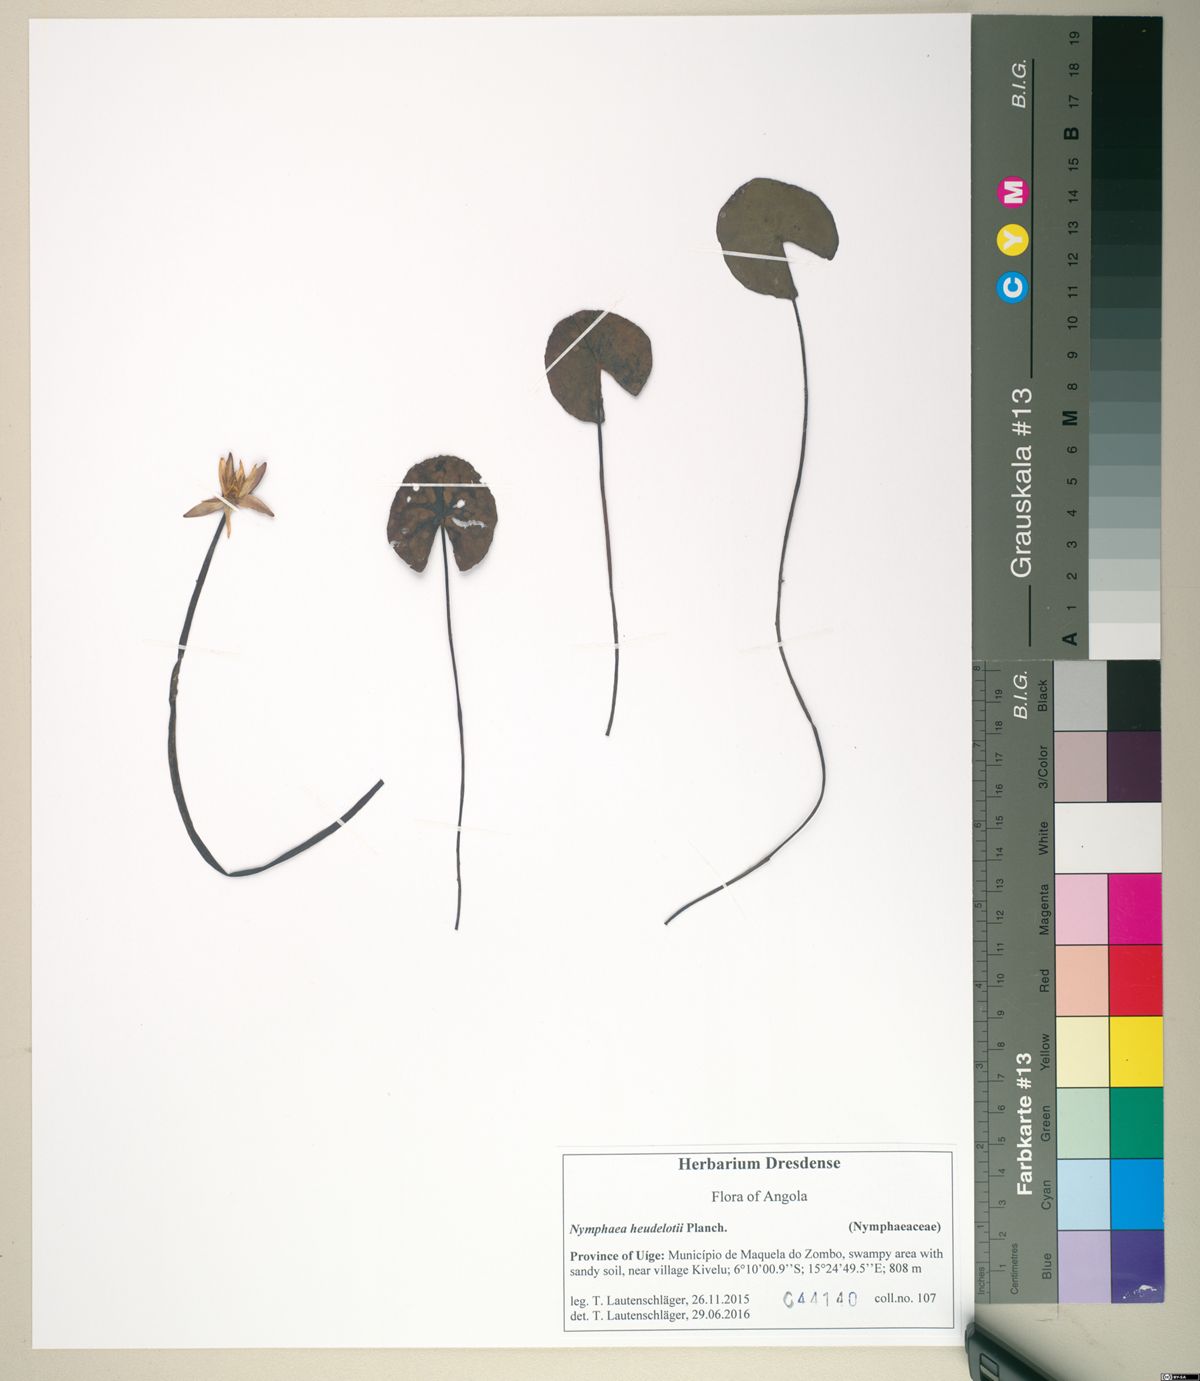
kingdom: Plantae
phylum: Tracheophyta
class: Magnoliopsida
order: Nymphaeales
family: Nymphaeaceae
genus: Nymphaea
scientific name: Nymphaea heudelotii
